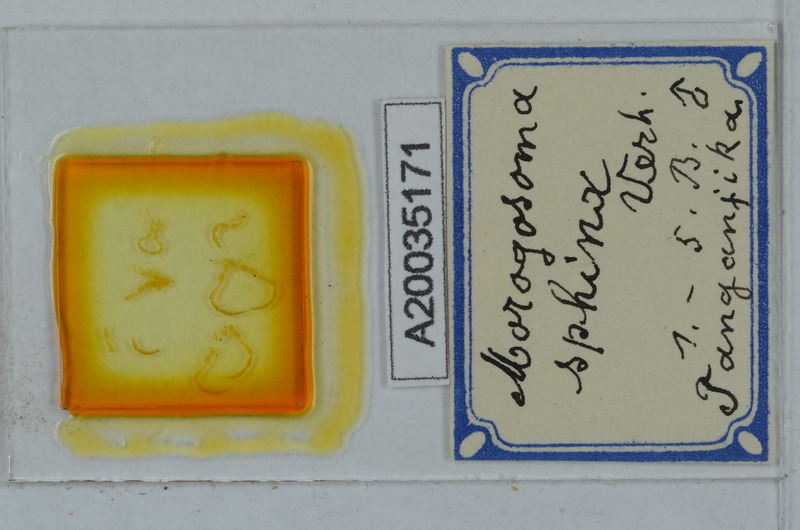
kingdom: Animalia
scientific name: Animalia
